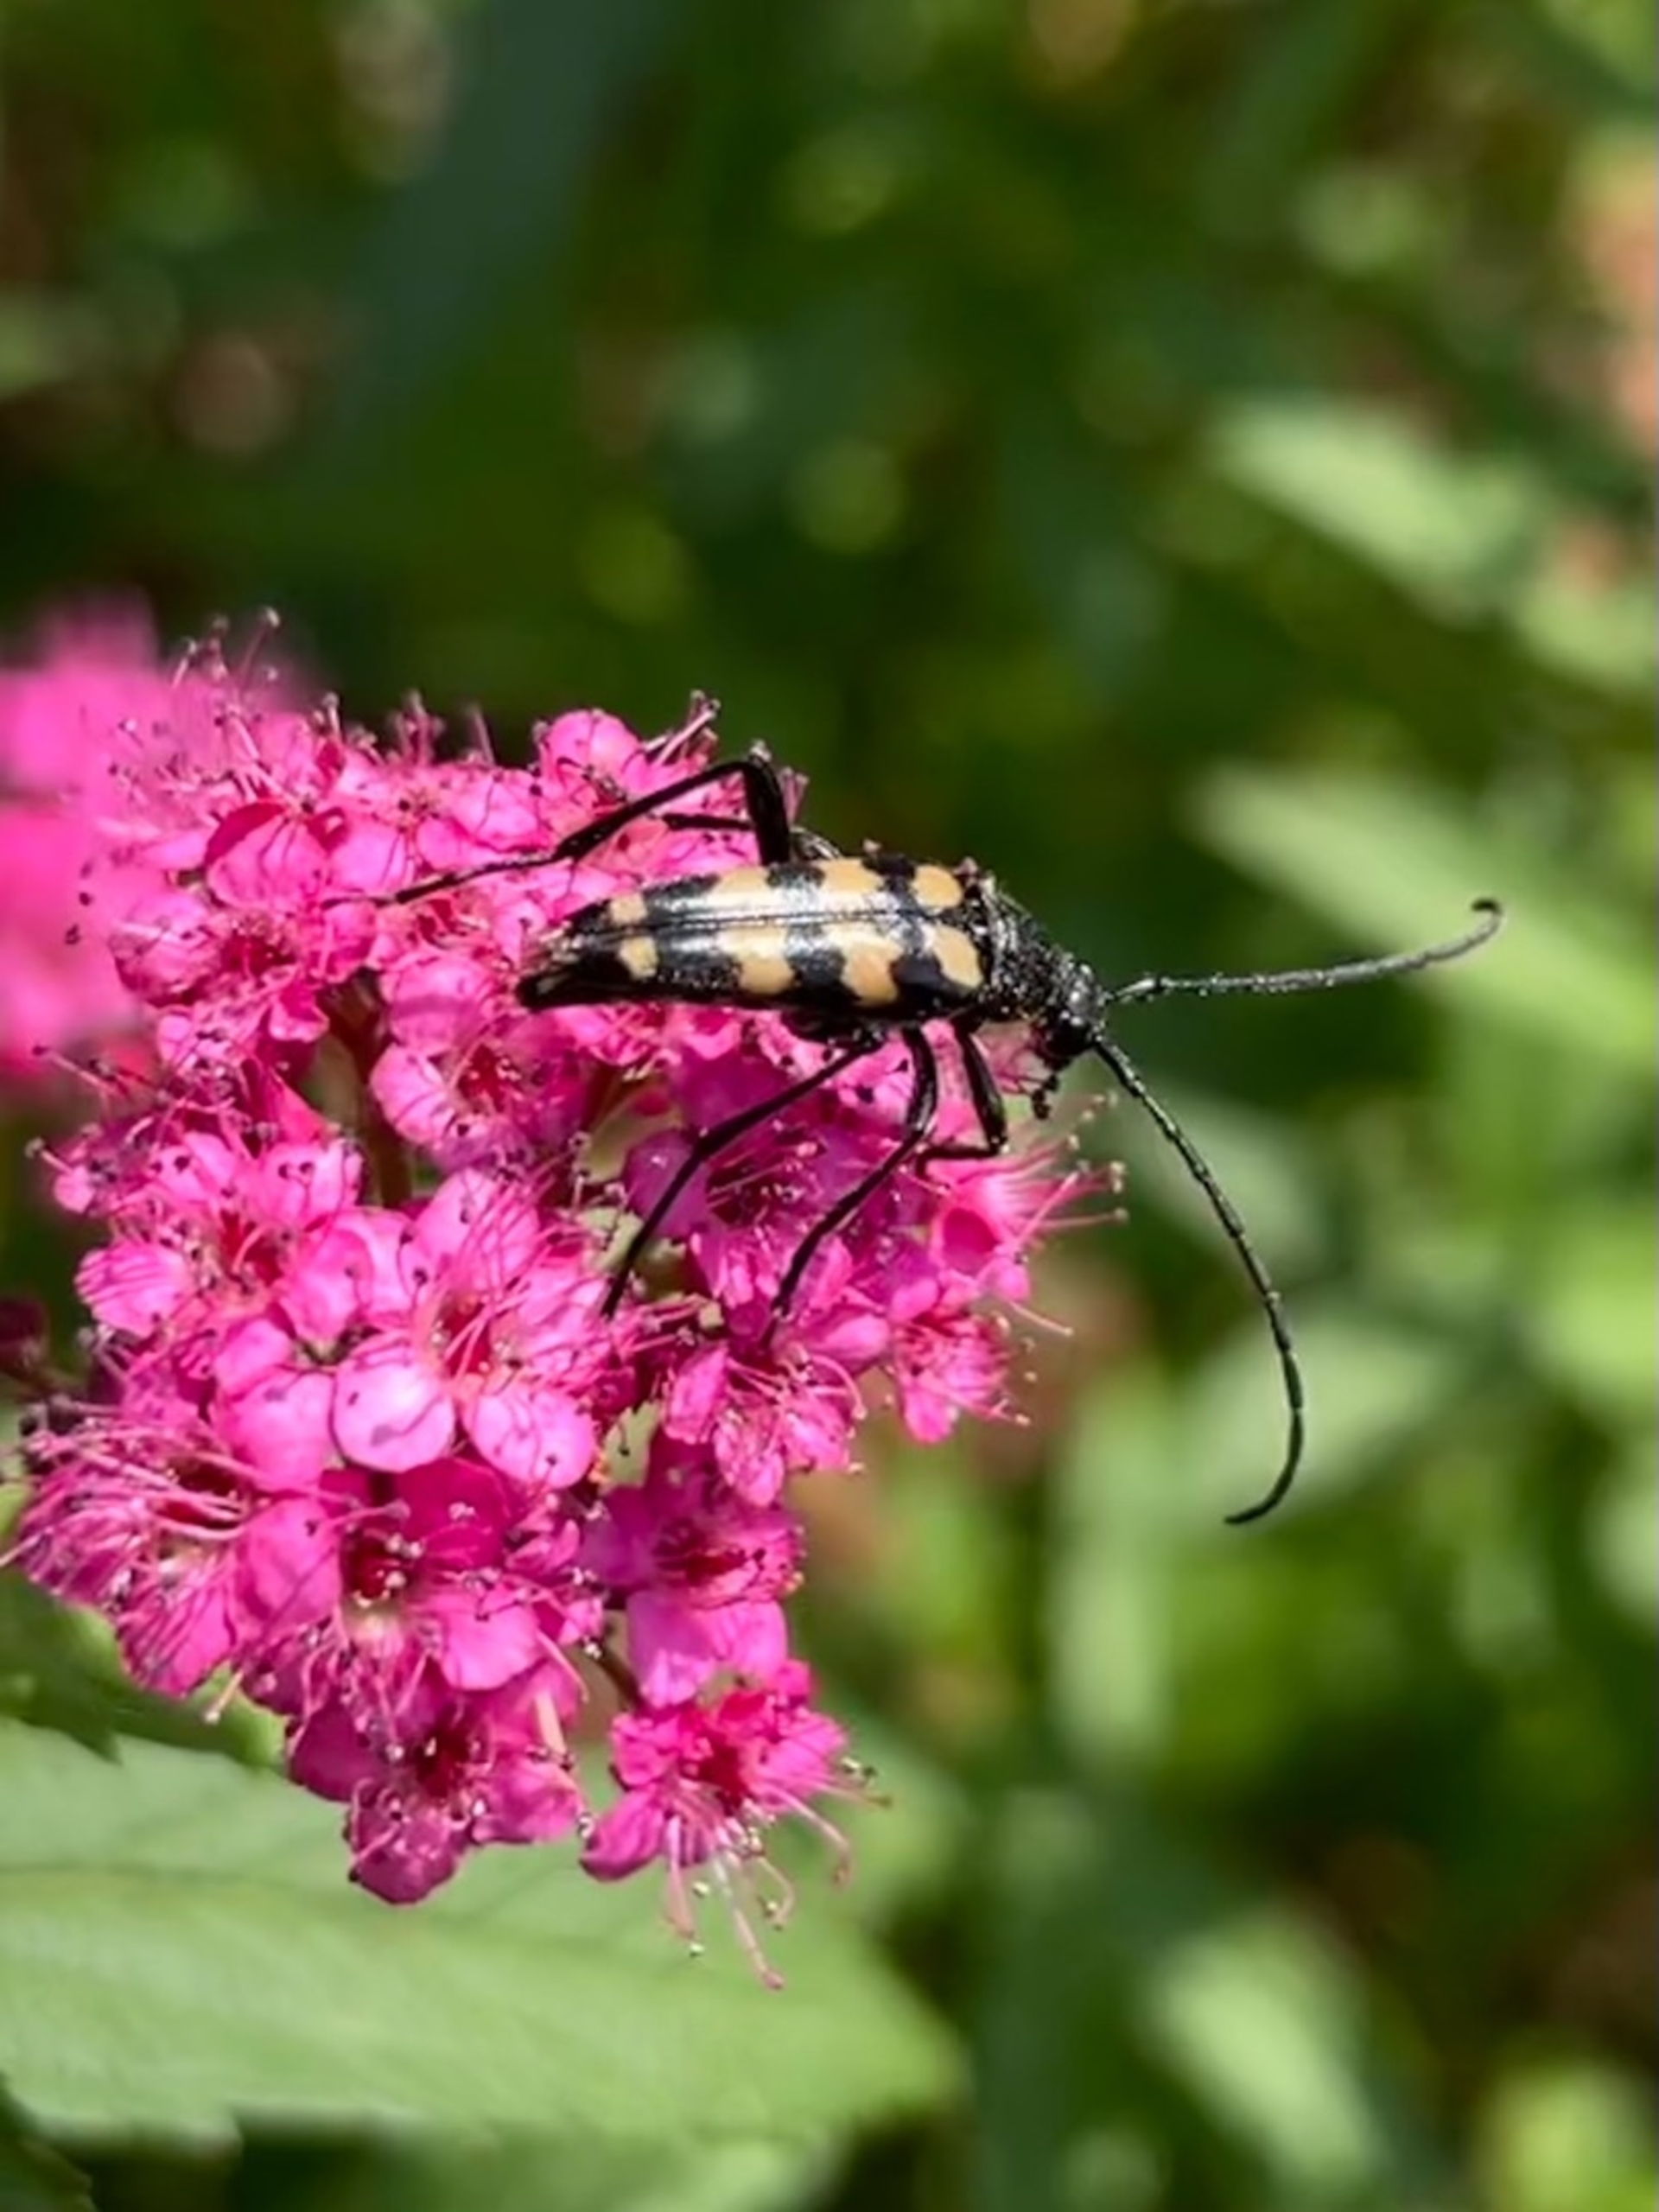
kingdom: Animalia
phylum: Arthropoda
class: Insecta
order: Coleoptera
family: Cerambycidae
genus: Leptura
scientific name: Leptura quadrifasciata
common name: Firebåndet blomsterbuk
